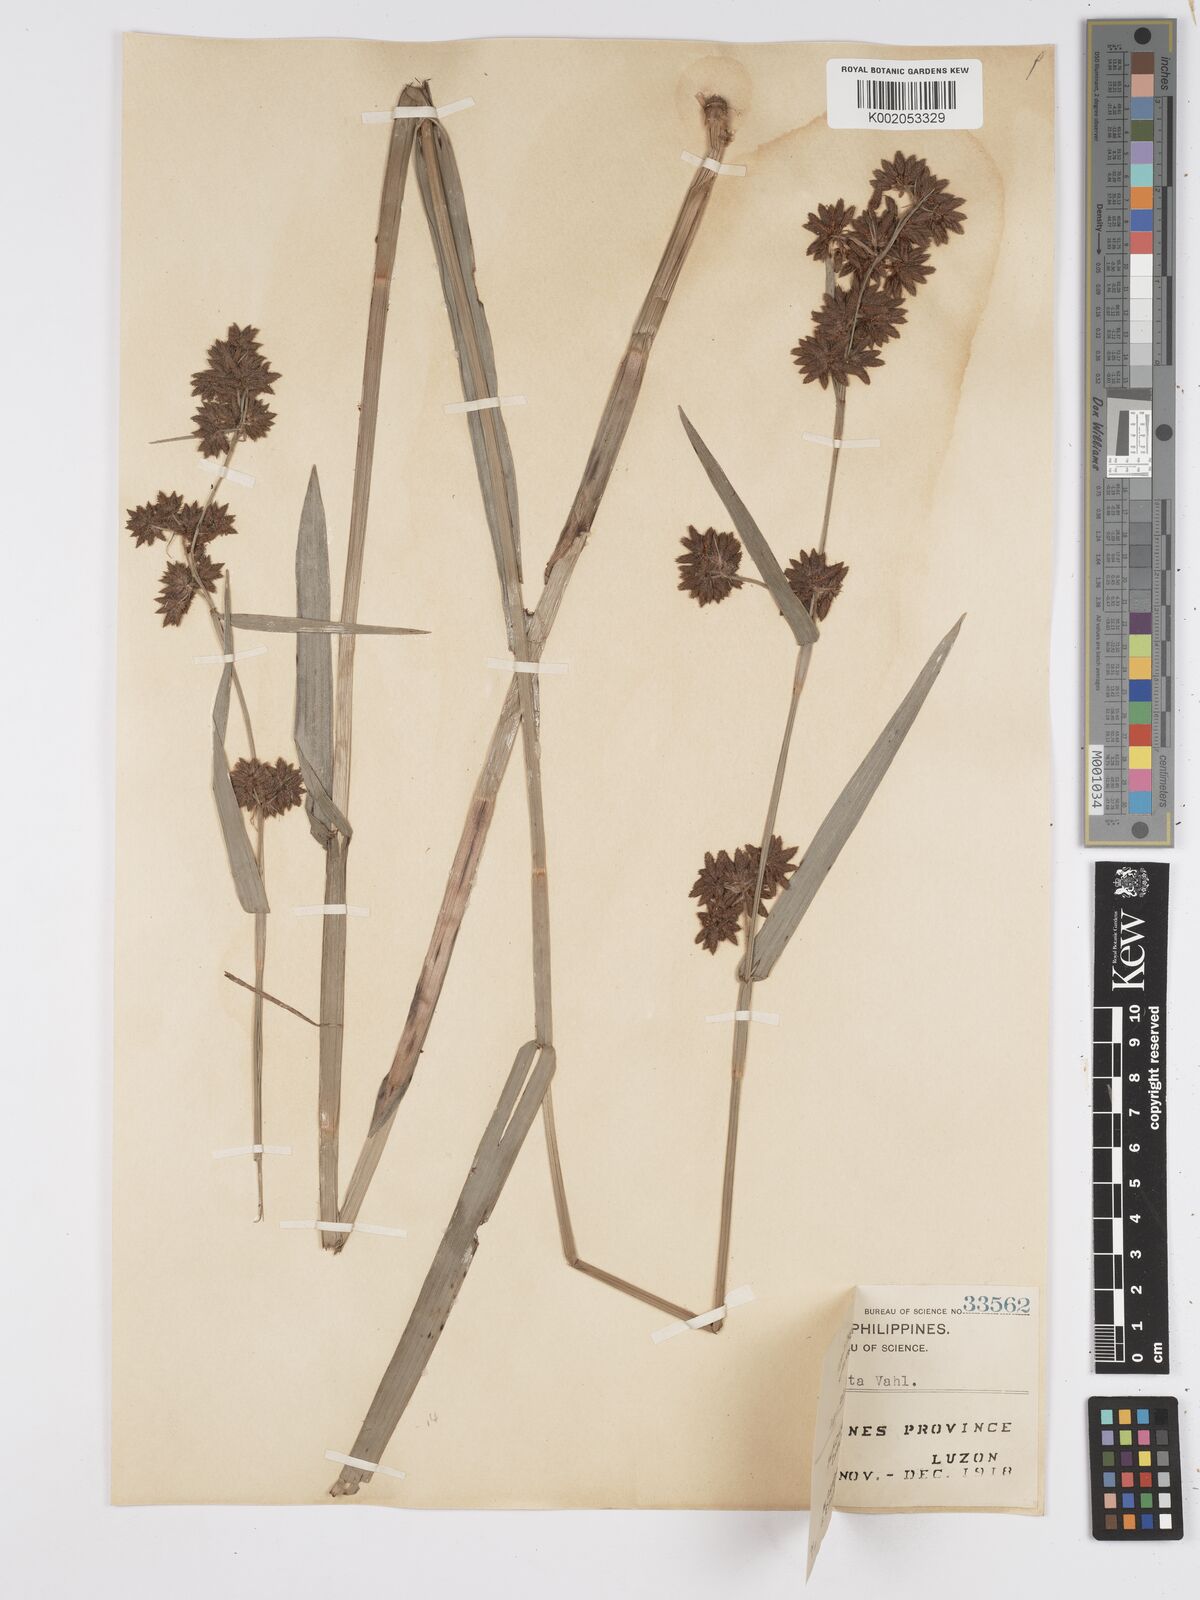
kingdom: Plantae
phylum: Tracheophyta
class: Liliopsida
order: Poales
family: Cyperaceae
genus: Fuirena
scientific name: Fuirena umbellata
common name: Yefen
